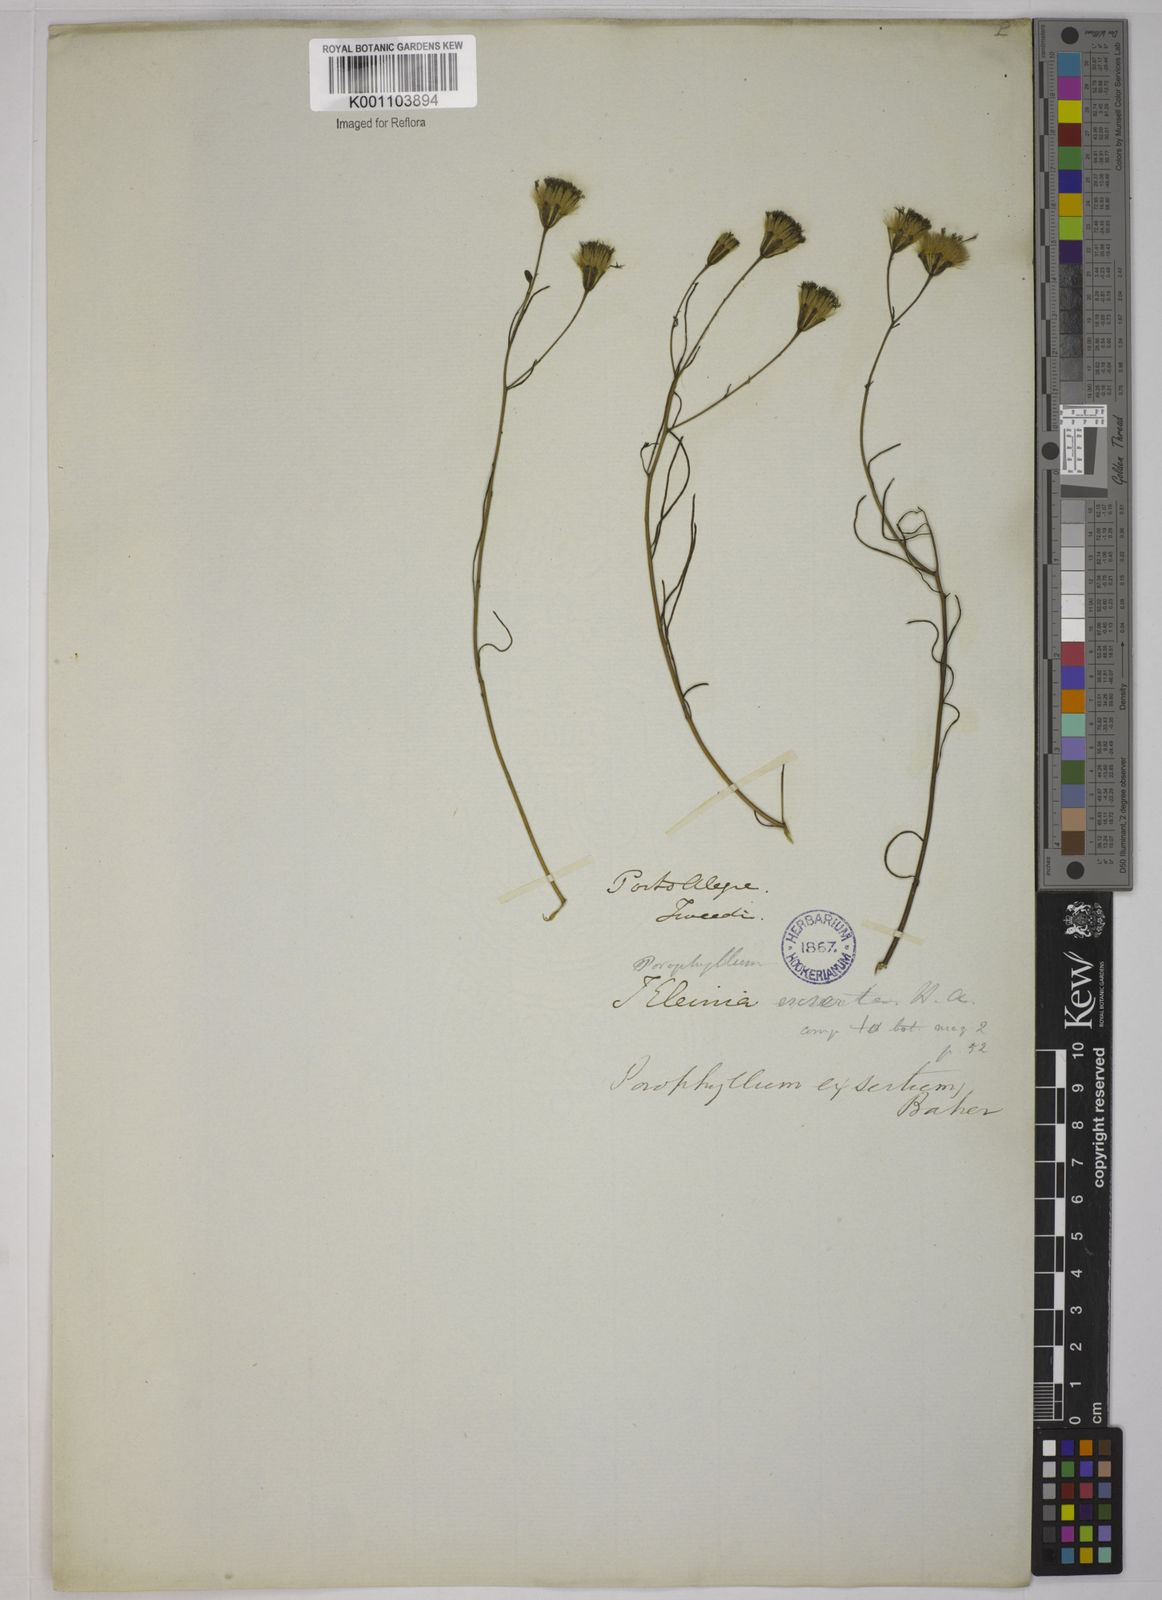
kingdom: Plantae
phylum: Tracheophyta
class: Magnoliopsida
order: Asterales
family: Asteraceae
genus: Porophyllum
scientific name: Porophyllum lanceolatum
